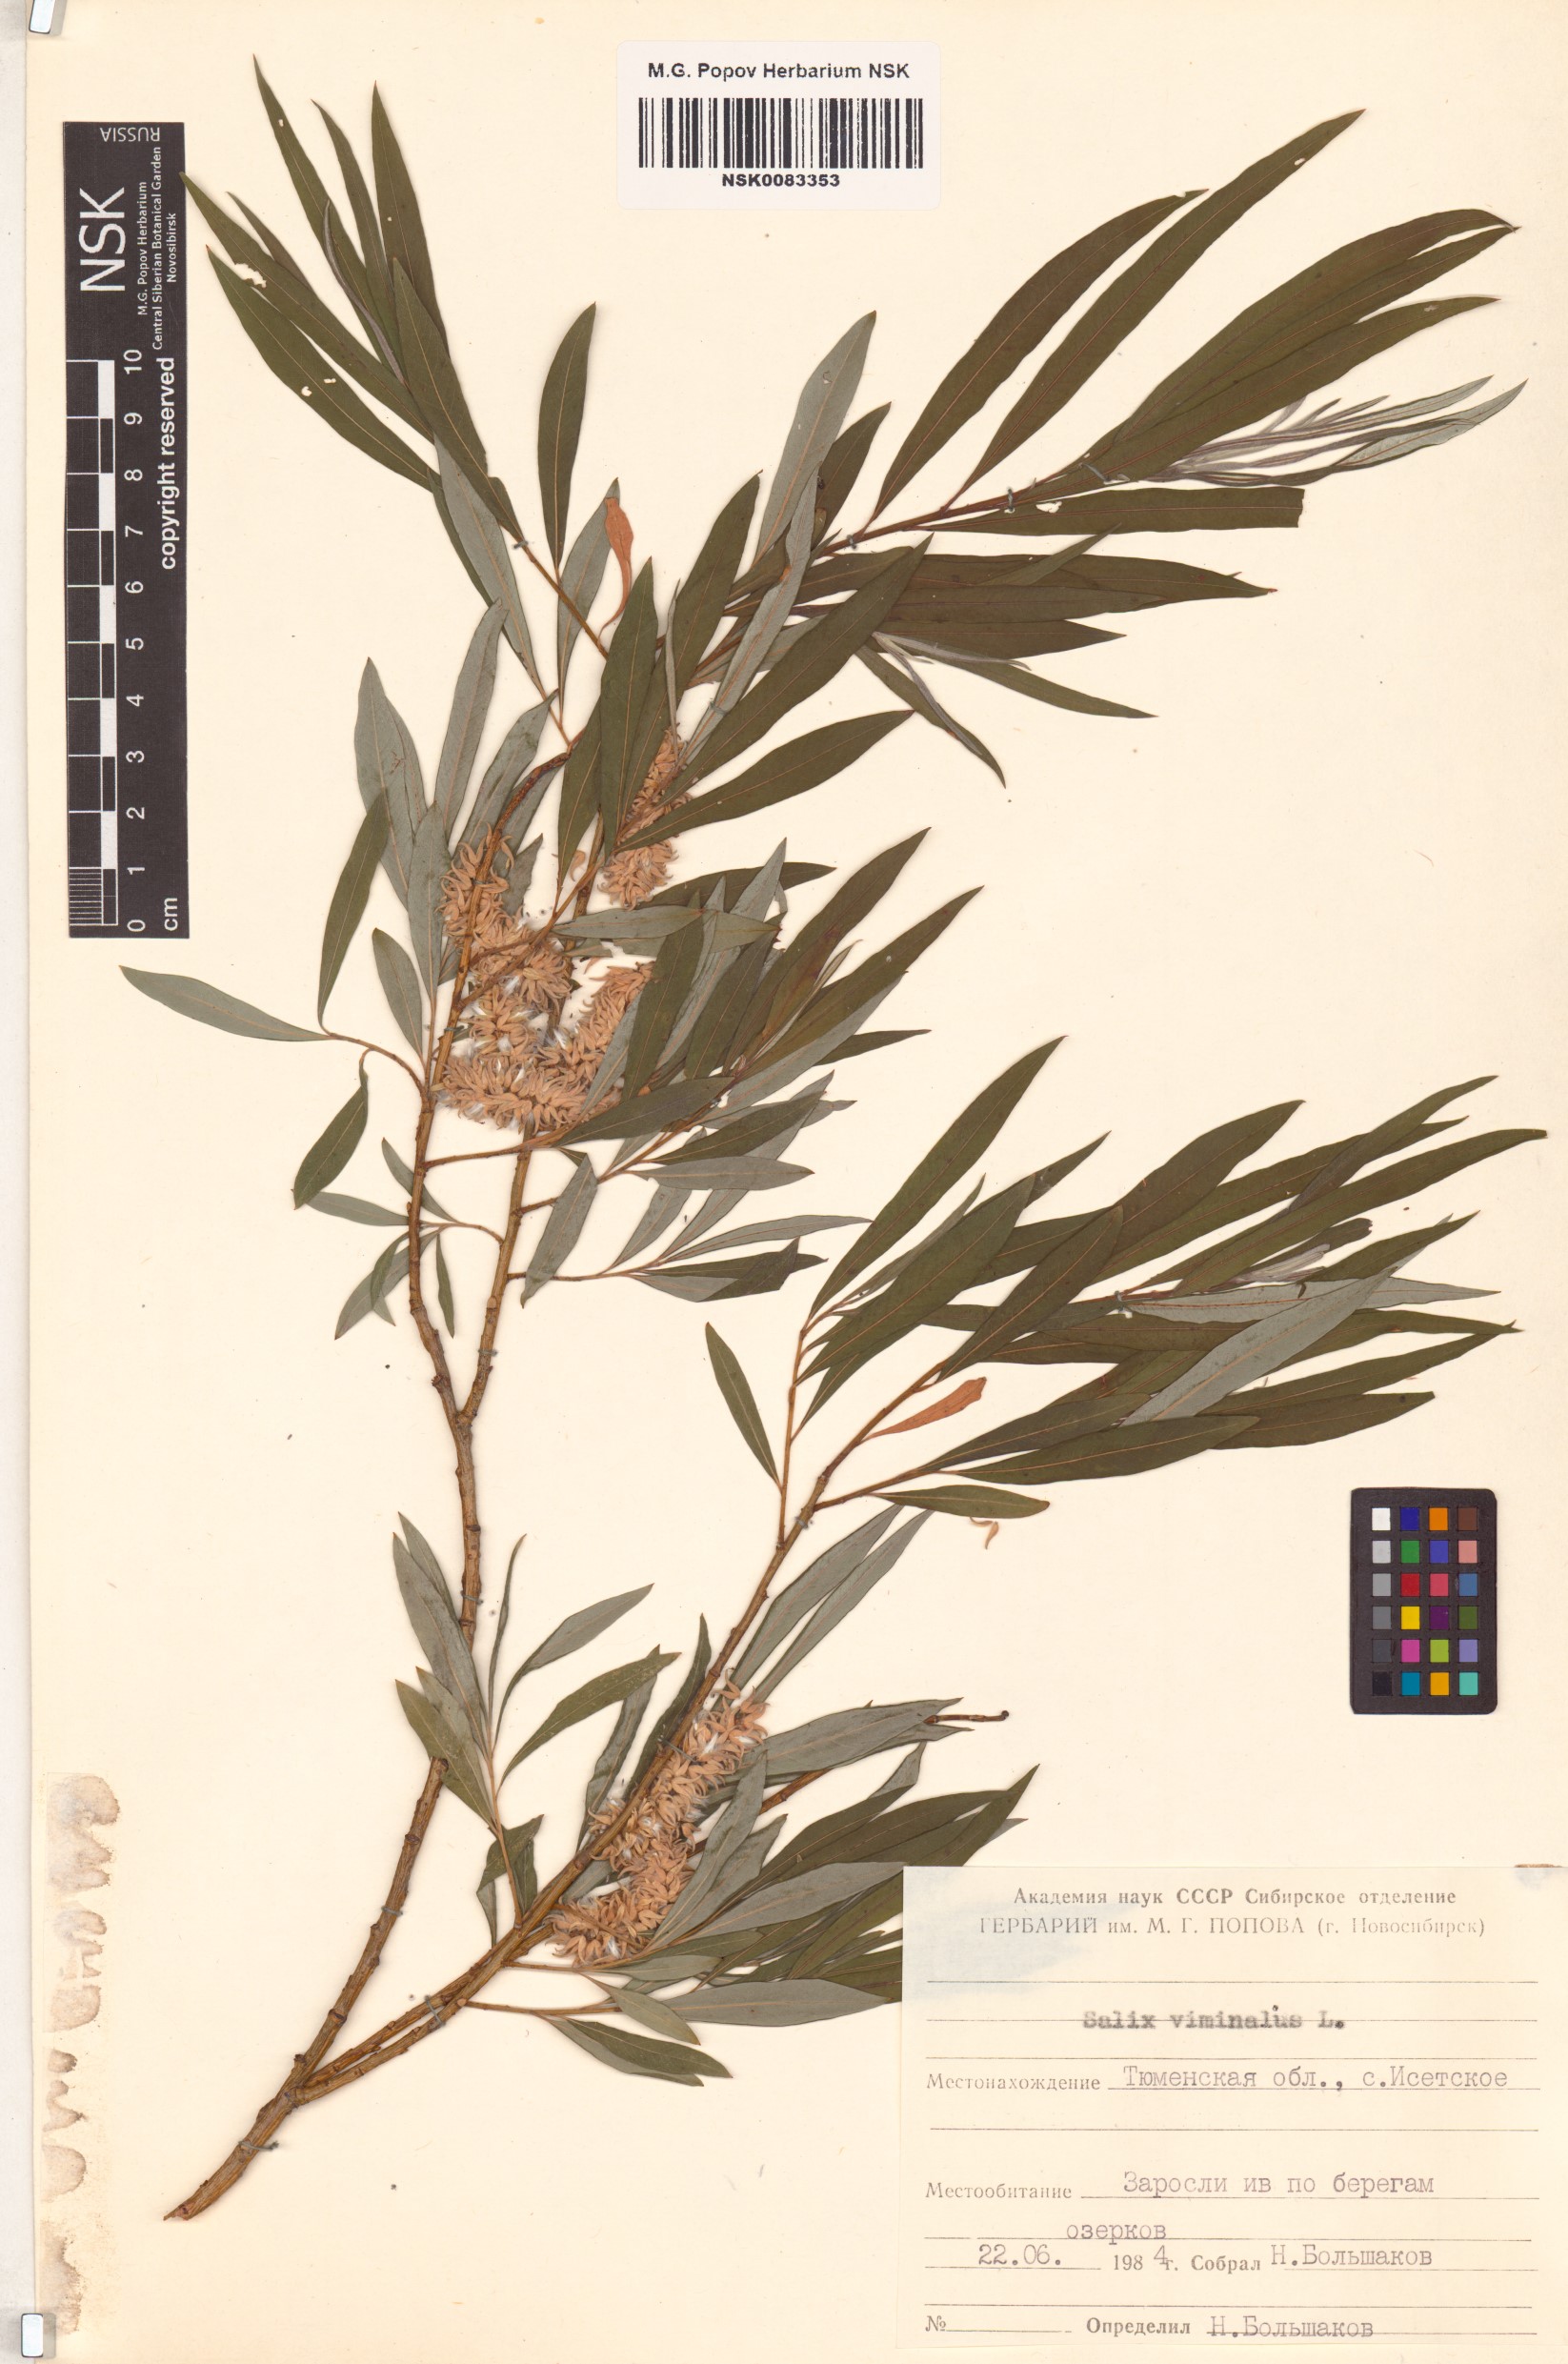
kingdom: Plantae
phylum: Tracheophyta
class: Magnoliopsida
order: Malpighiales
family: Salicaceae
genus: Salix
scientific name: Salix viminalis
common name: Osier
